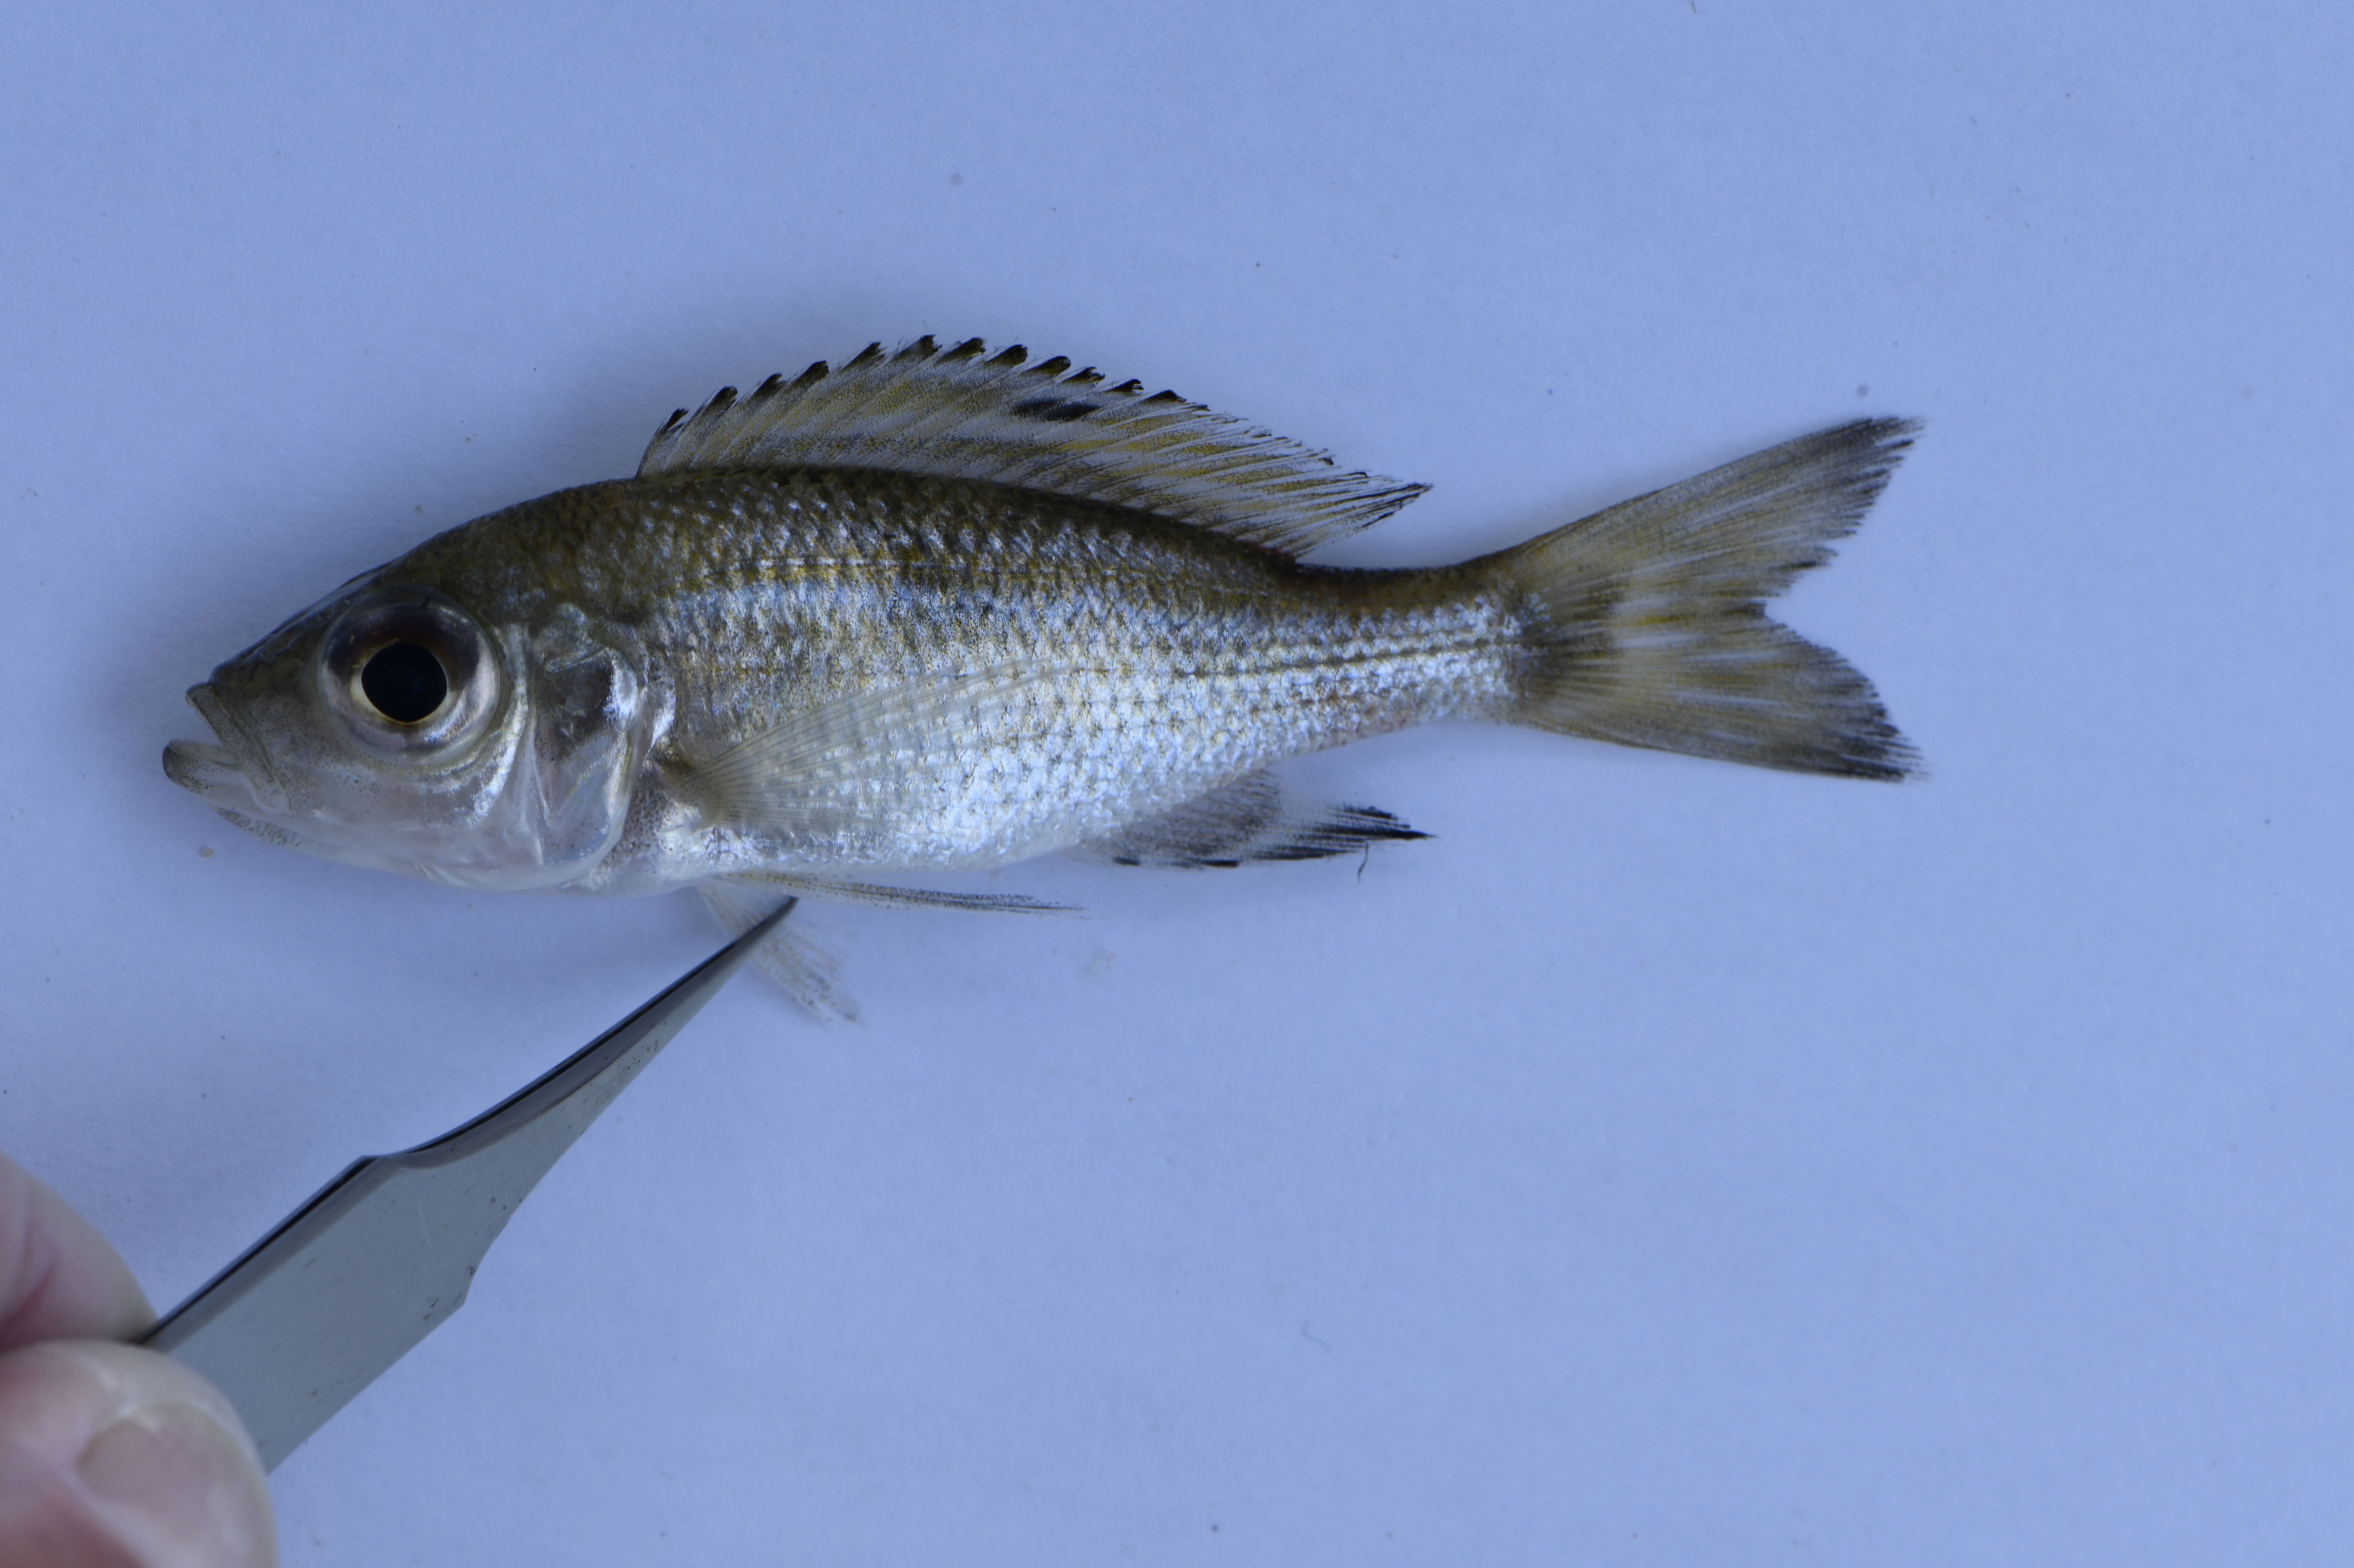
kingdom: Animalia
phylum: Chordata
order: Perciformes
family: Cichlidae
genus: Aulonocranus
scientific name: Aulonocranus dewindti
